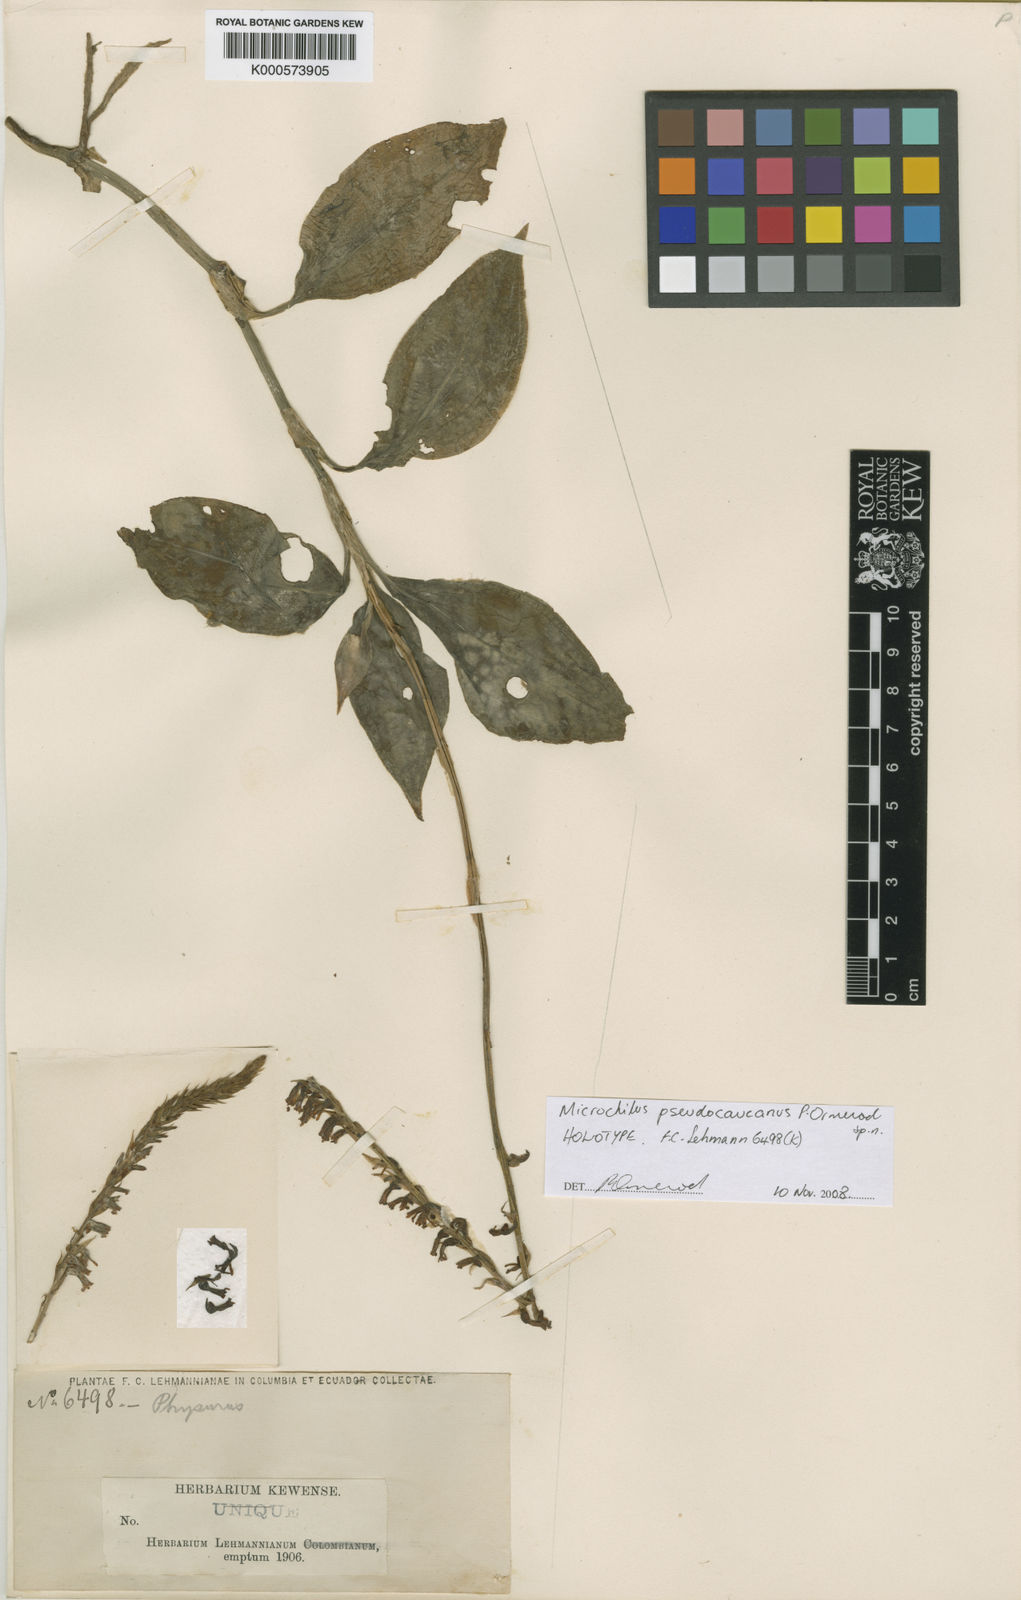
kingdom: Plantae
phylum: Tracheophyta
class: Liliopsida
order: Asparagales
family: Orchidaceae
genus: Microchilus
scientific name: Microchilus pseudocaucanus
